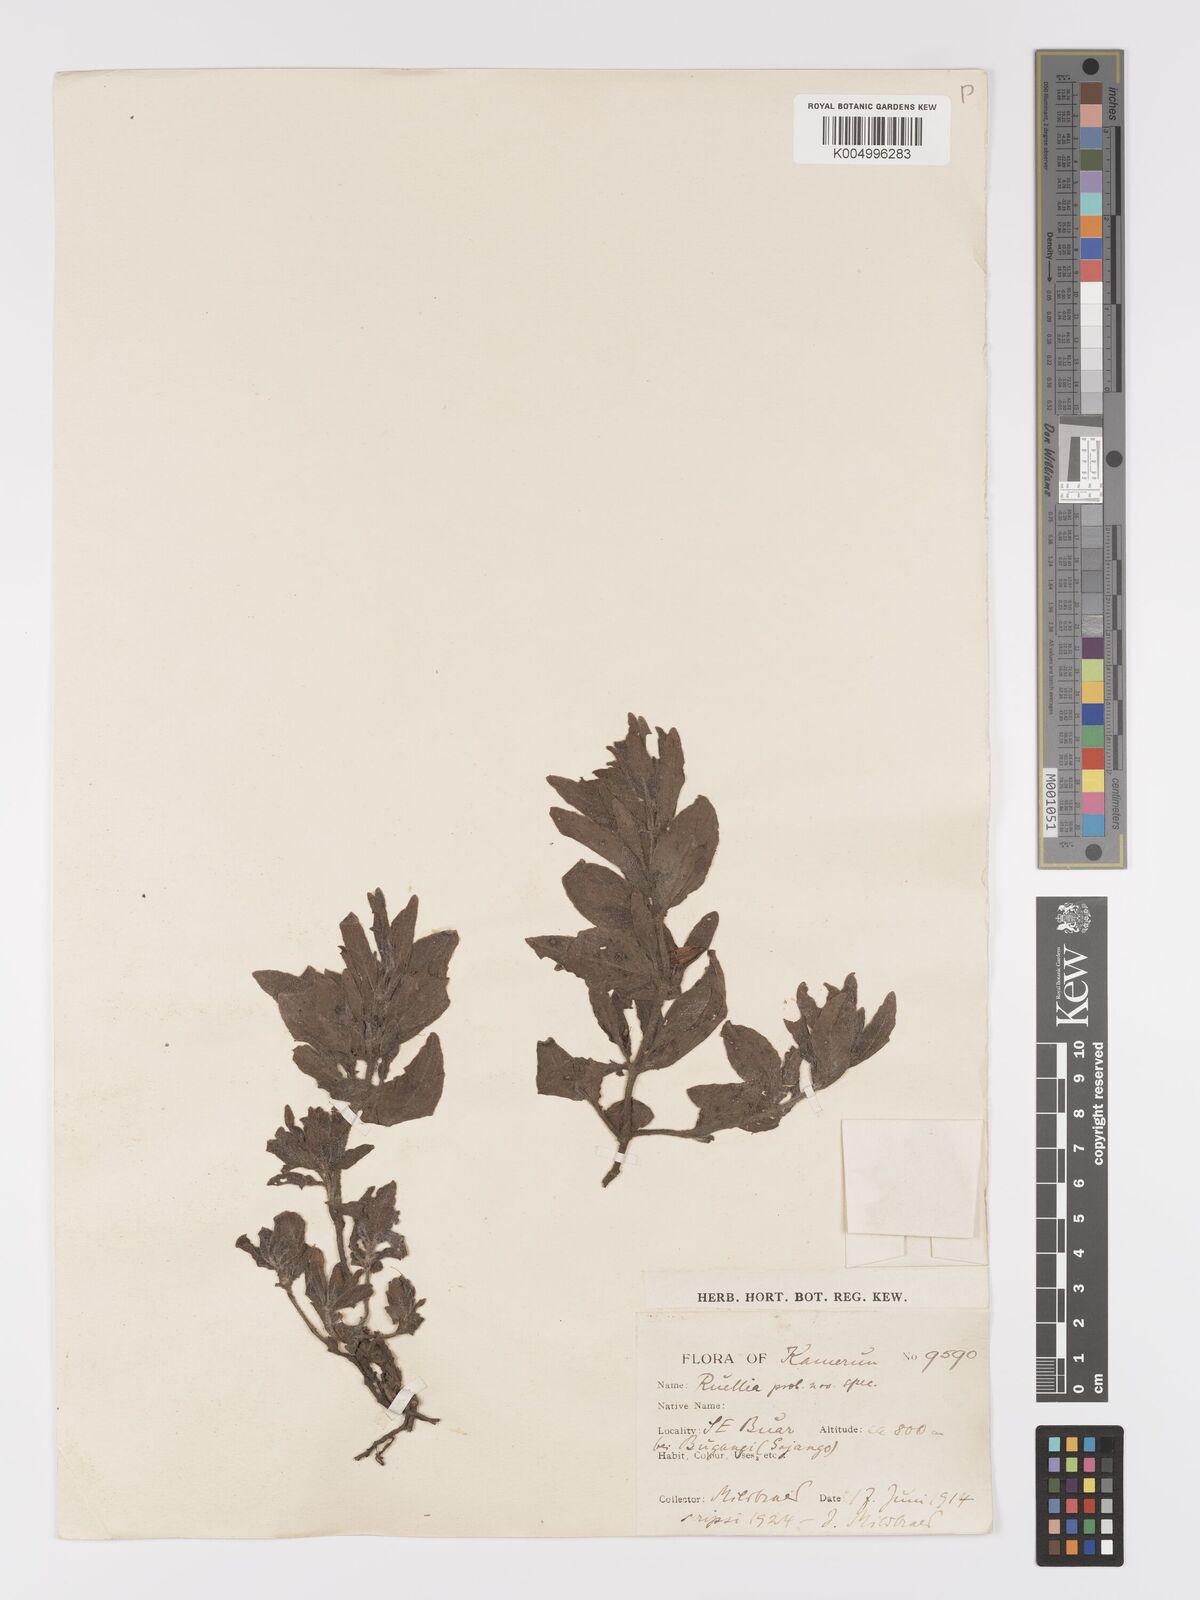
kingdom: Plantae
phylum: Tracheophyta
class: Magnoliopsida
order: Lamiales
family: Acanthaceae
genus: Ruellia
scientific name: Ruellia
